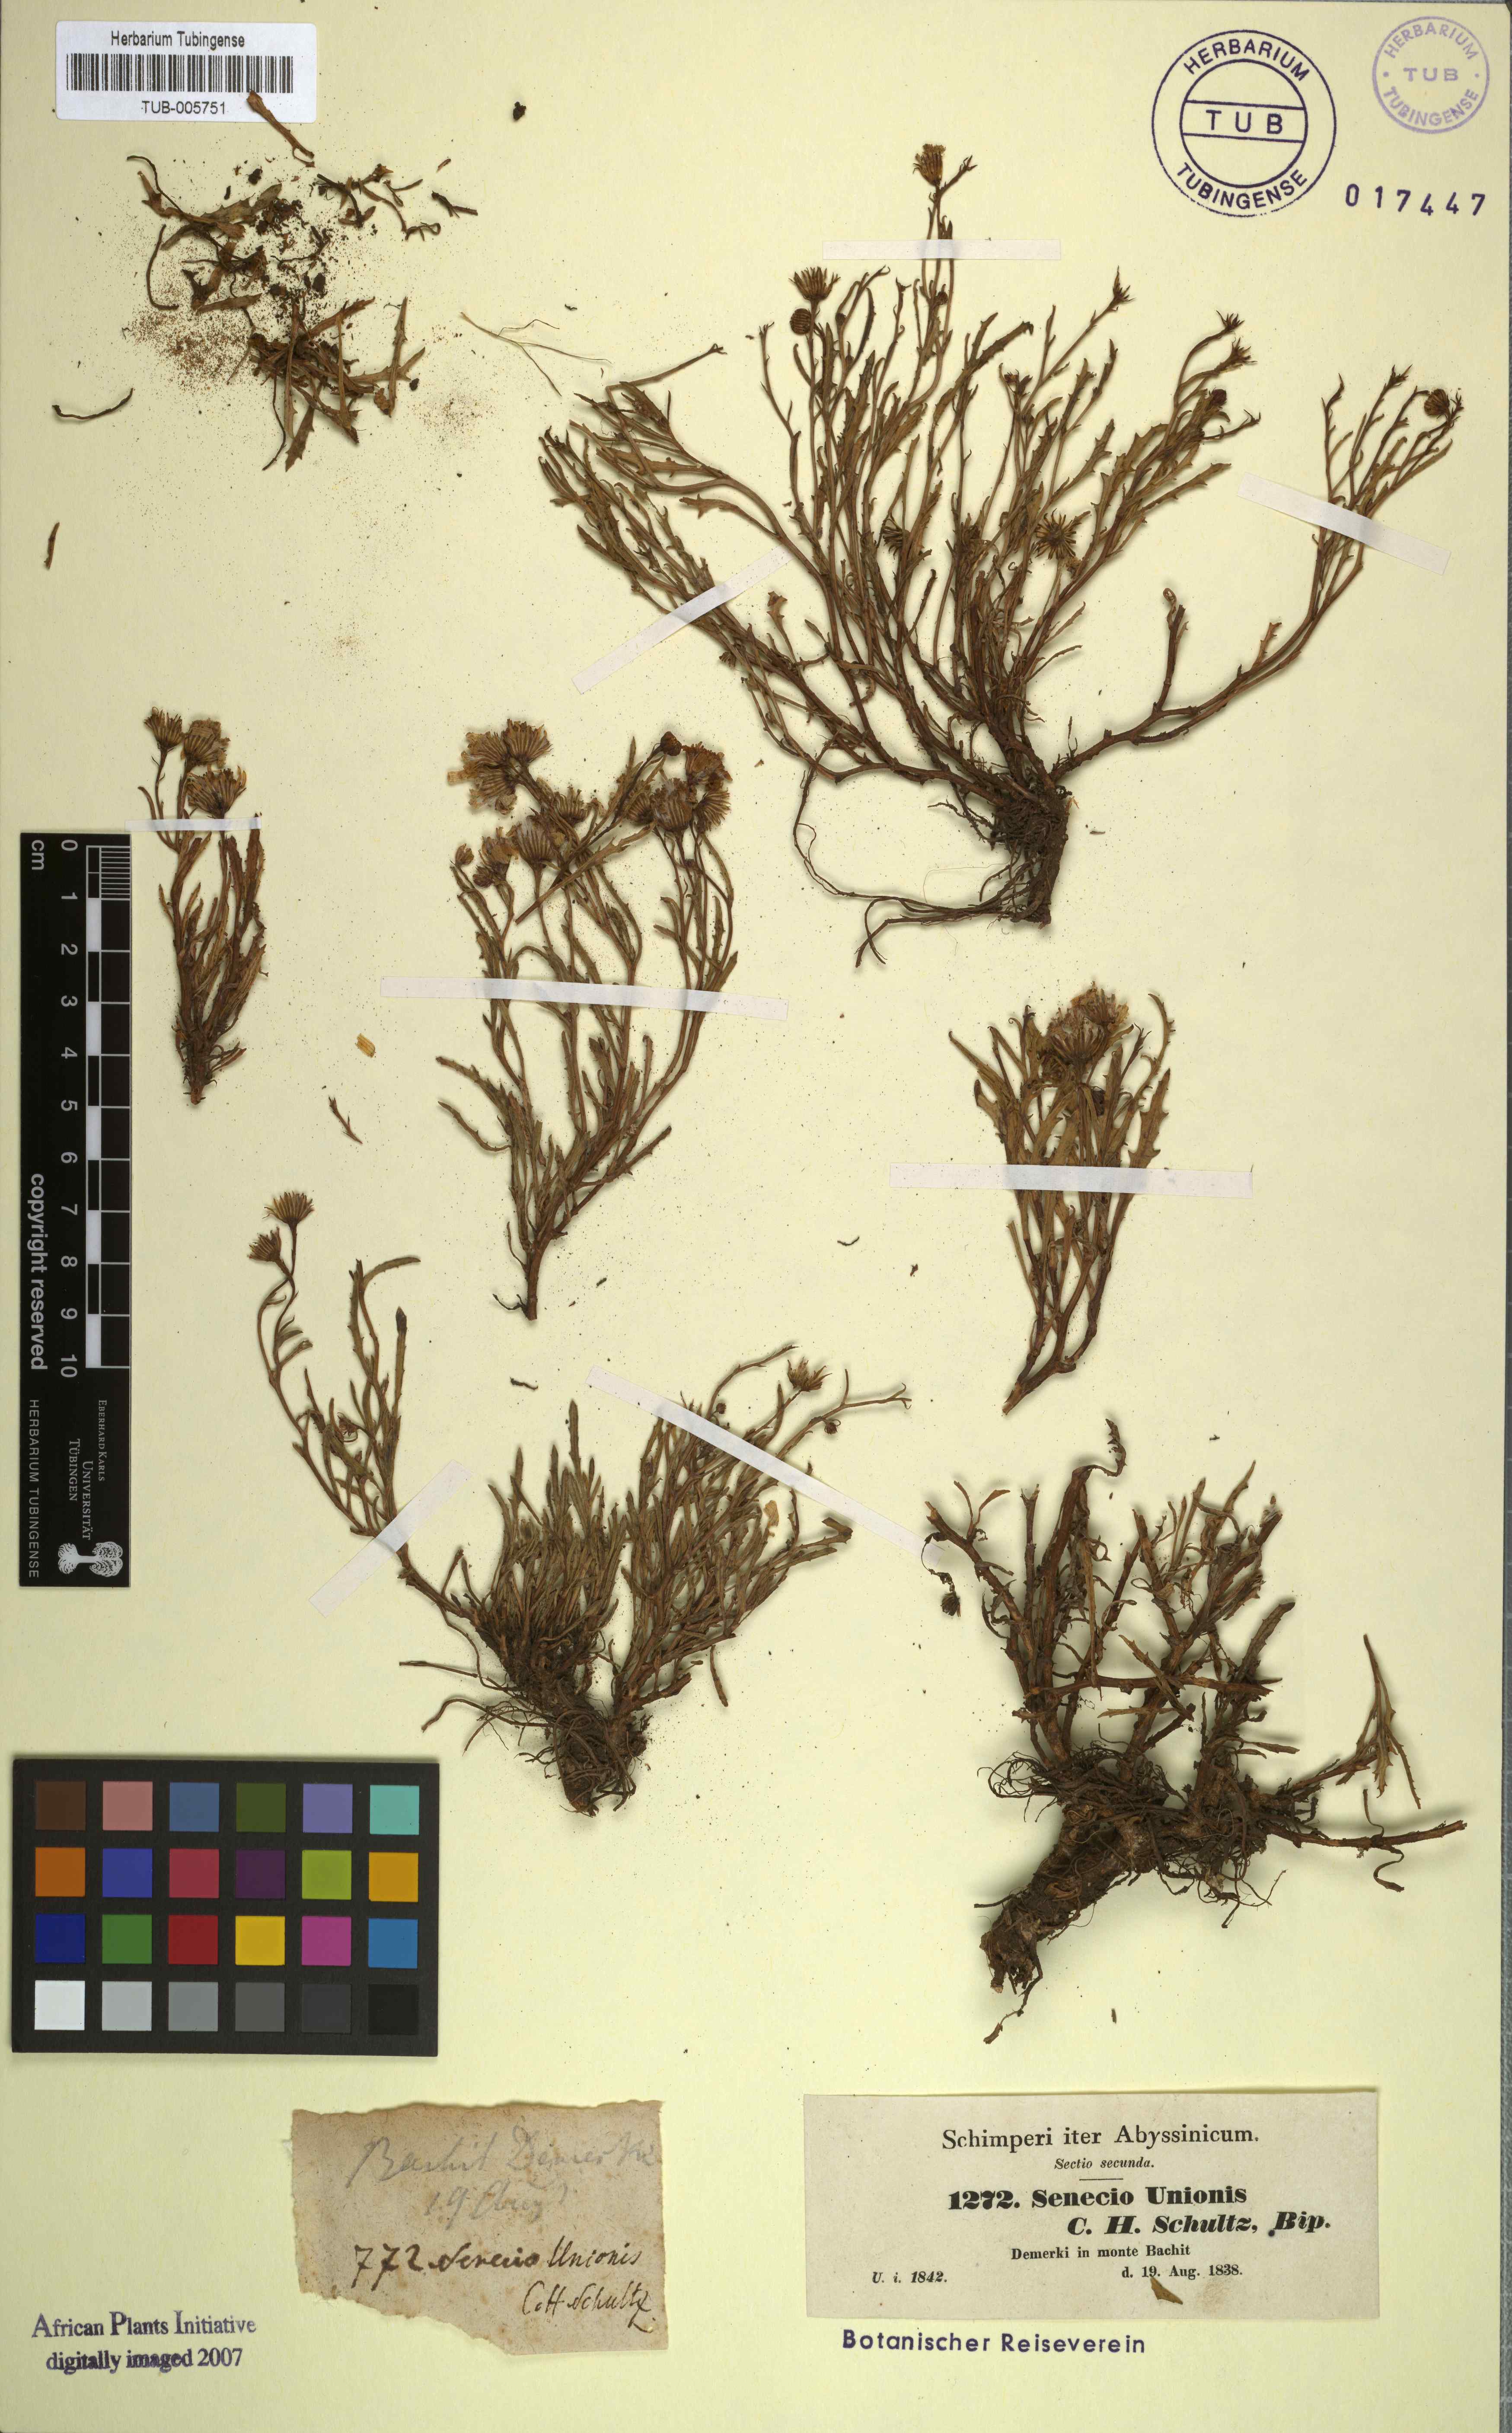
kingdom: Plantae
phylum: Tracheophyta
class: Magnoliopsida
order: Asterales
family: Asteraceae
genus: Senecio
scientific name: Senecio unionis
